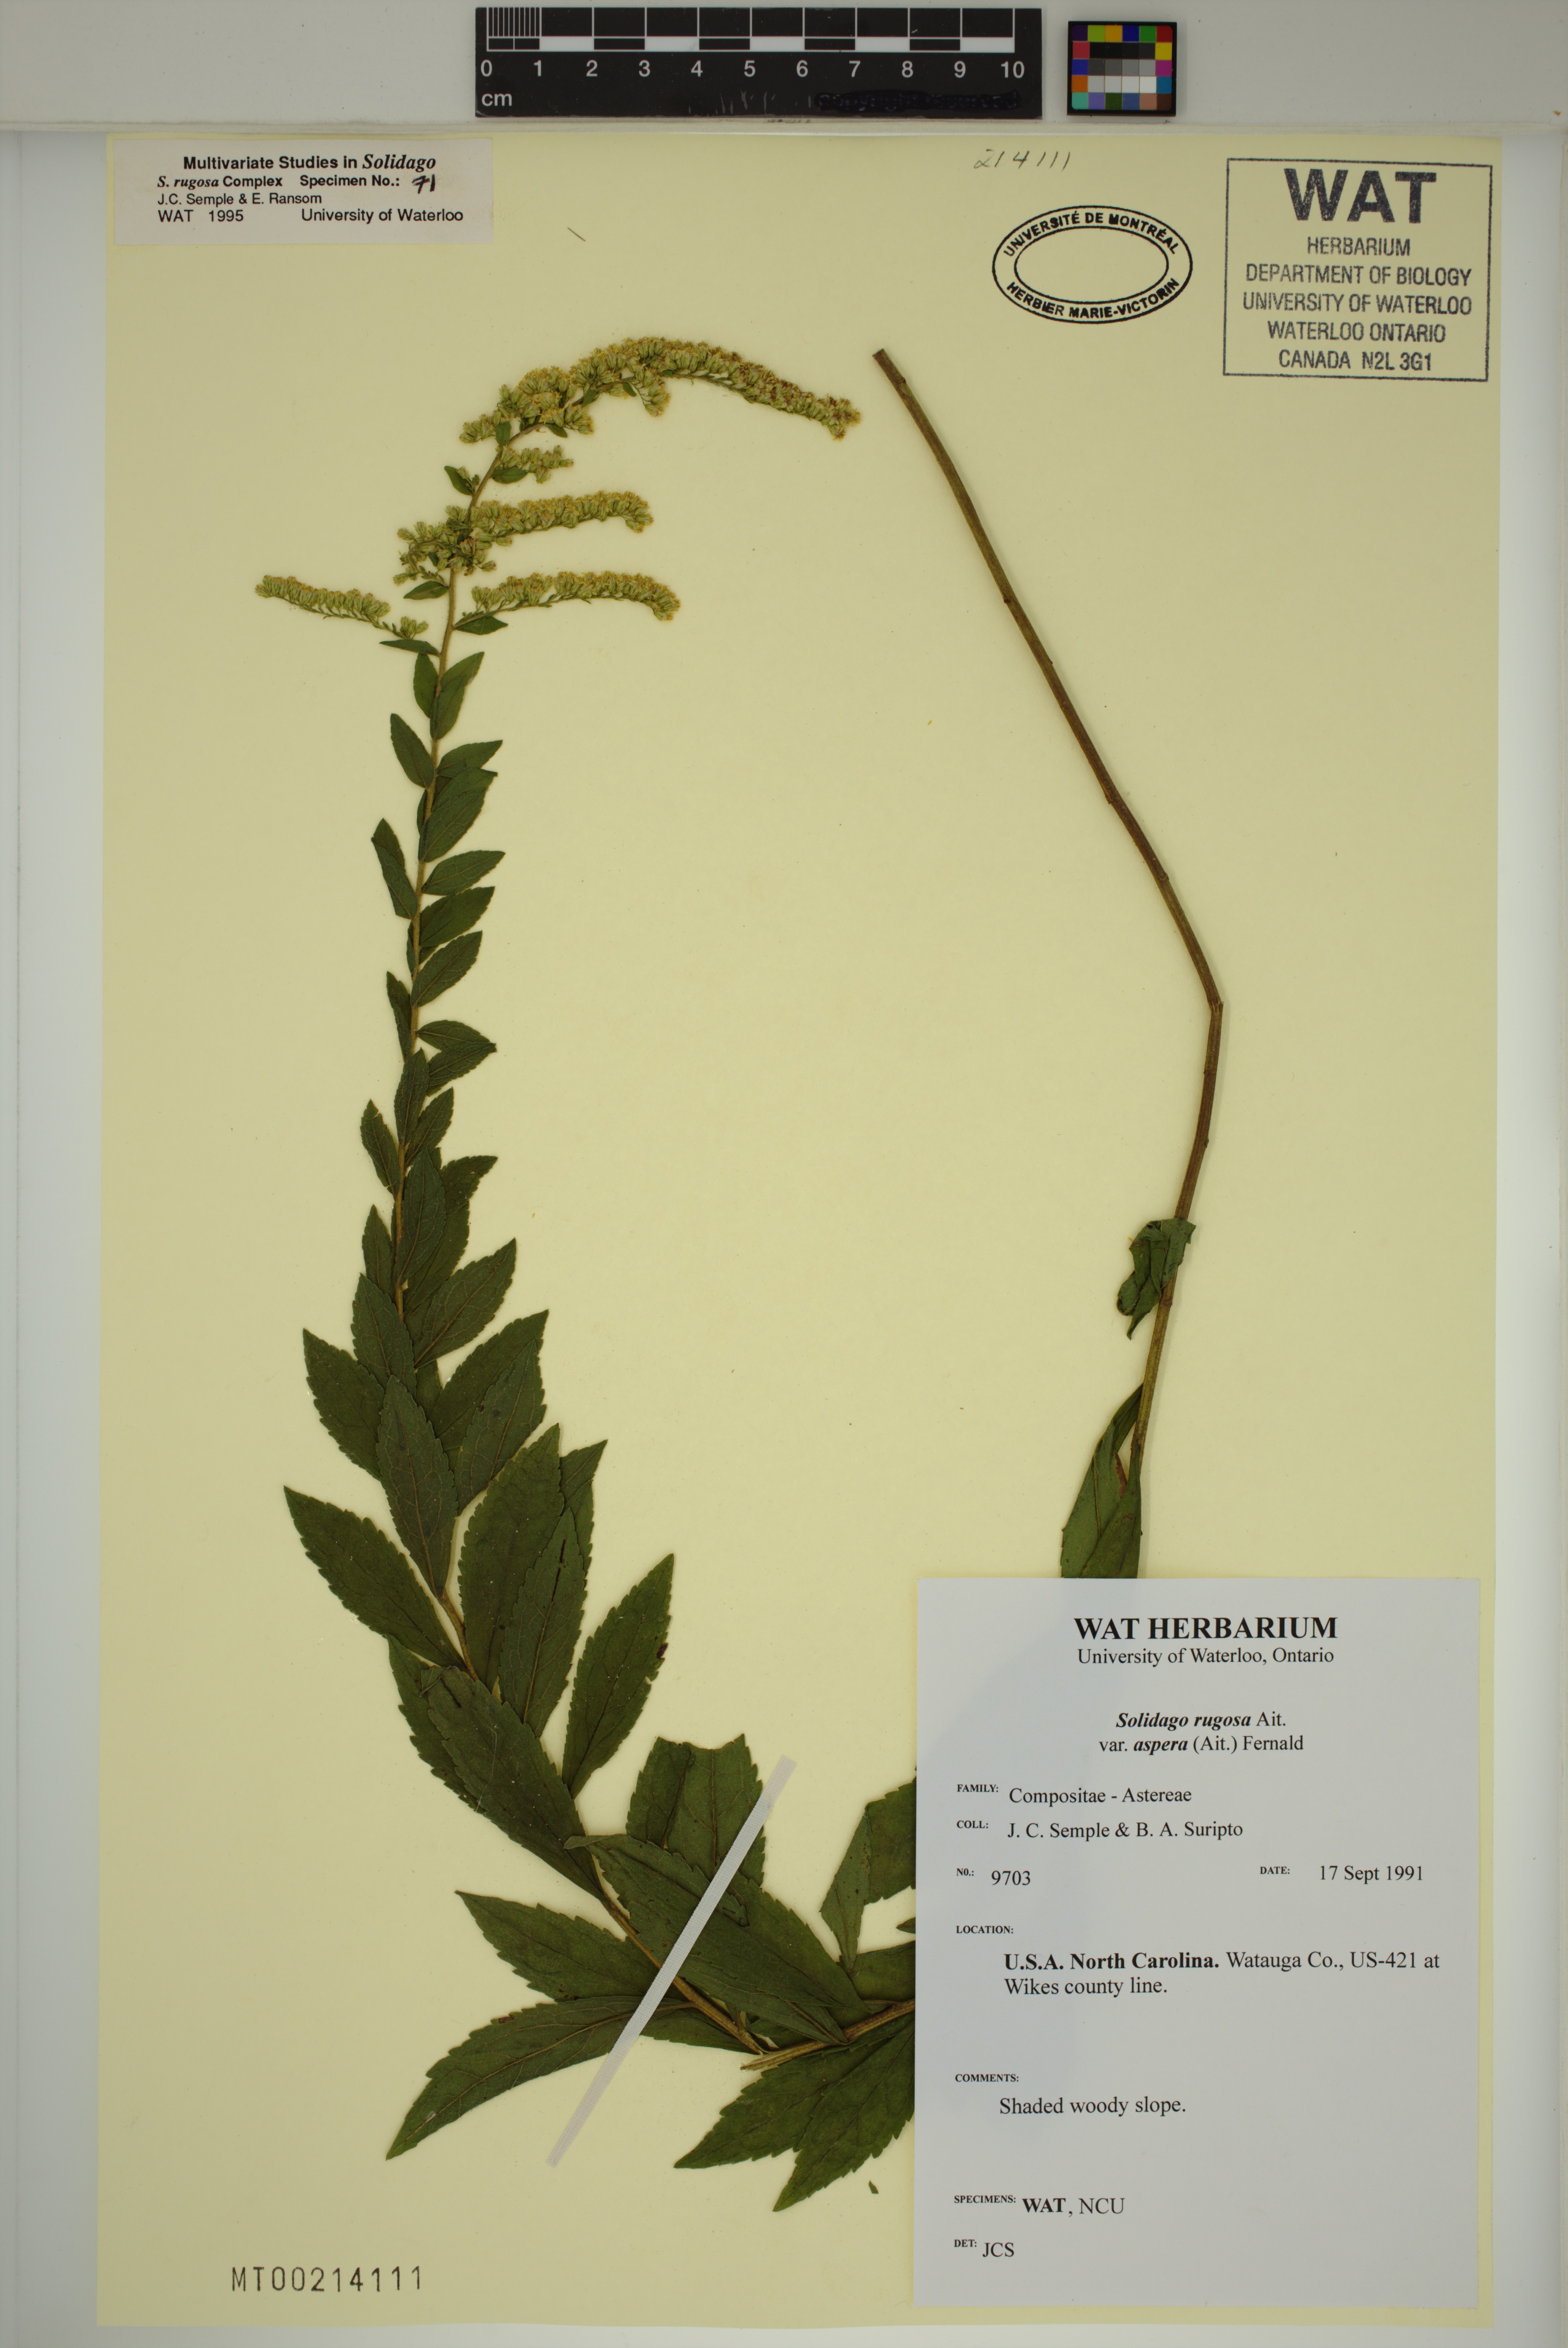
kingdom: Plantae
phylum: Tracheophyta
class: Magnoliopsida
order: Asterales
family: Asteraceae
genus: Solidago
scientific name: Solidago rugosa
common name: Rough-stemmed goldenrod
